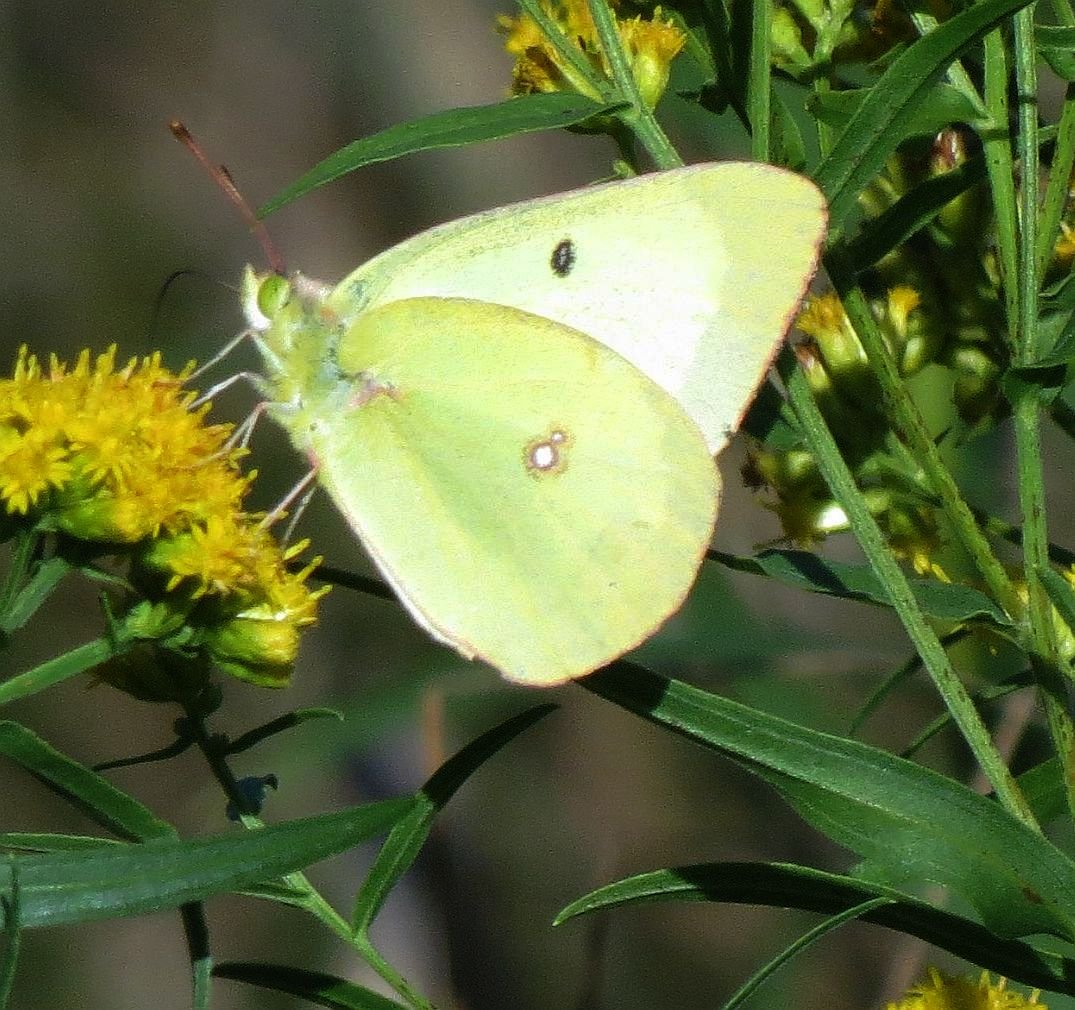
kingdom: Animalia
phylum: Arthropoda
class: Insecta
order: Lepidoptera
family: Pieridae
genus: Colias
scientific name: Colias philodice
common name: Clouded Sulphur
